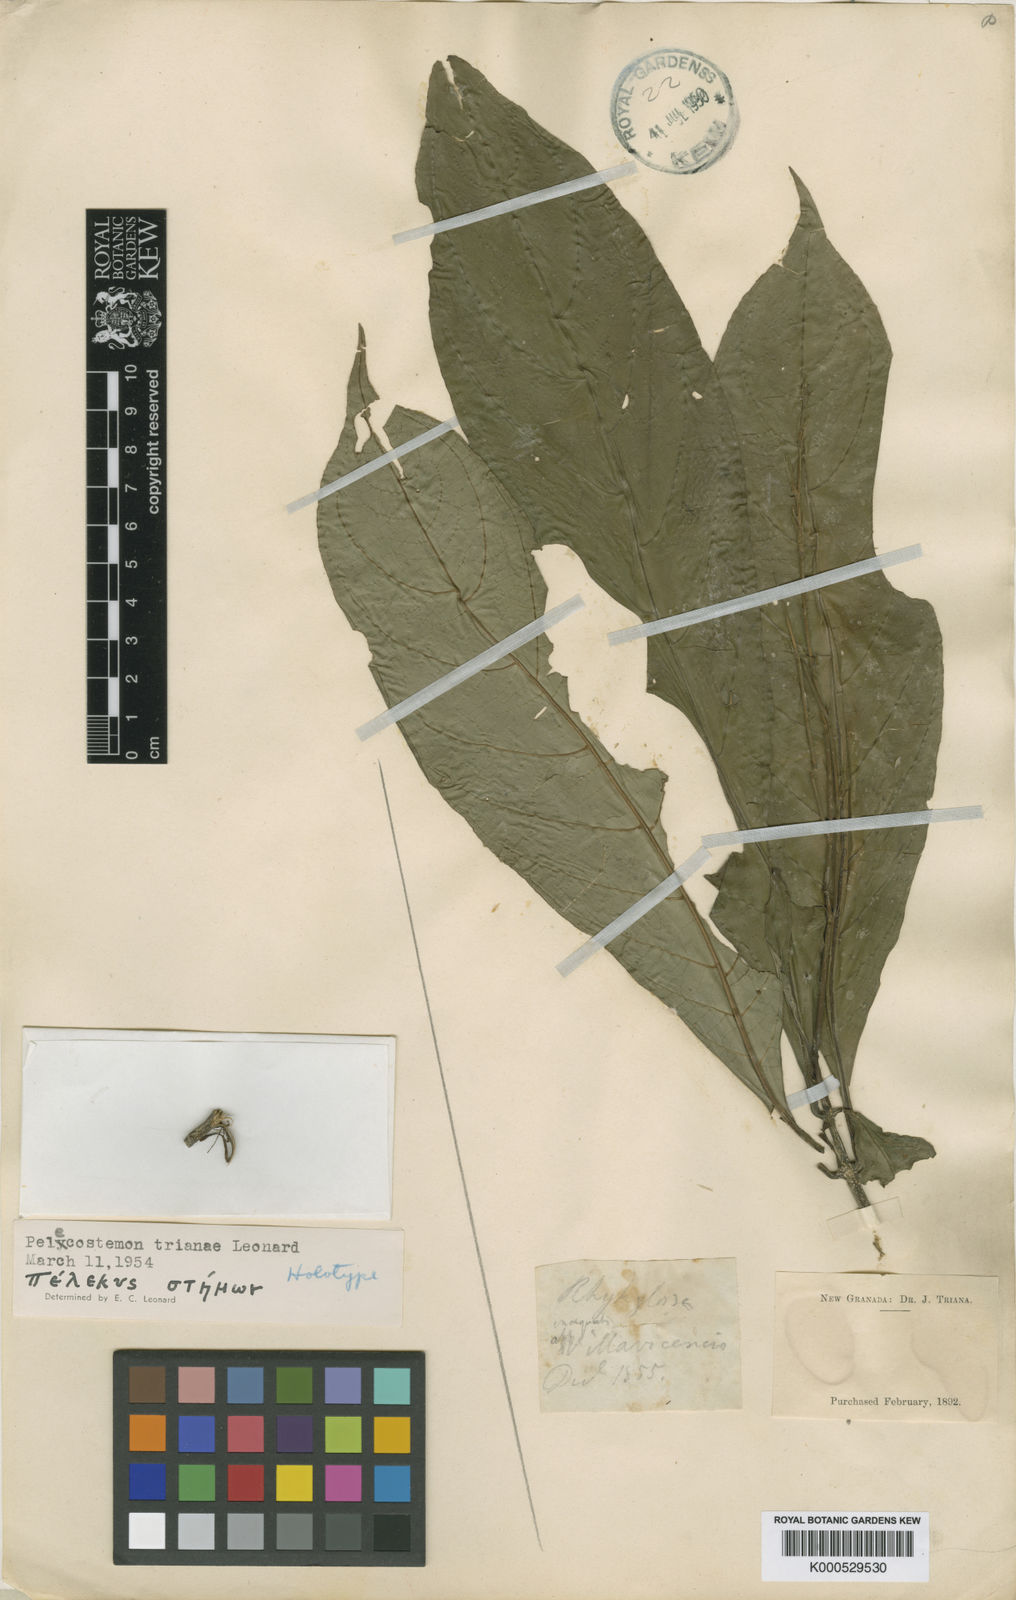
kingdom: Plantae
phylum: Tracheophyta
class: Magnoliopsida
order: Lamiales
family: Acanthaceae
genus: Justicia
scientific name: Justicia trianae
